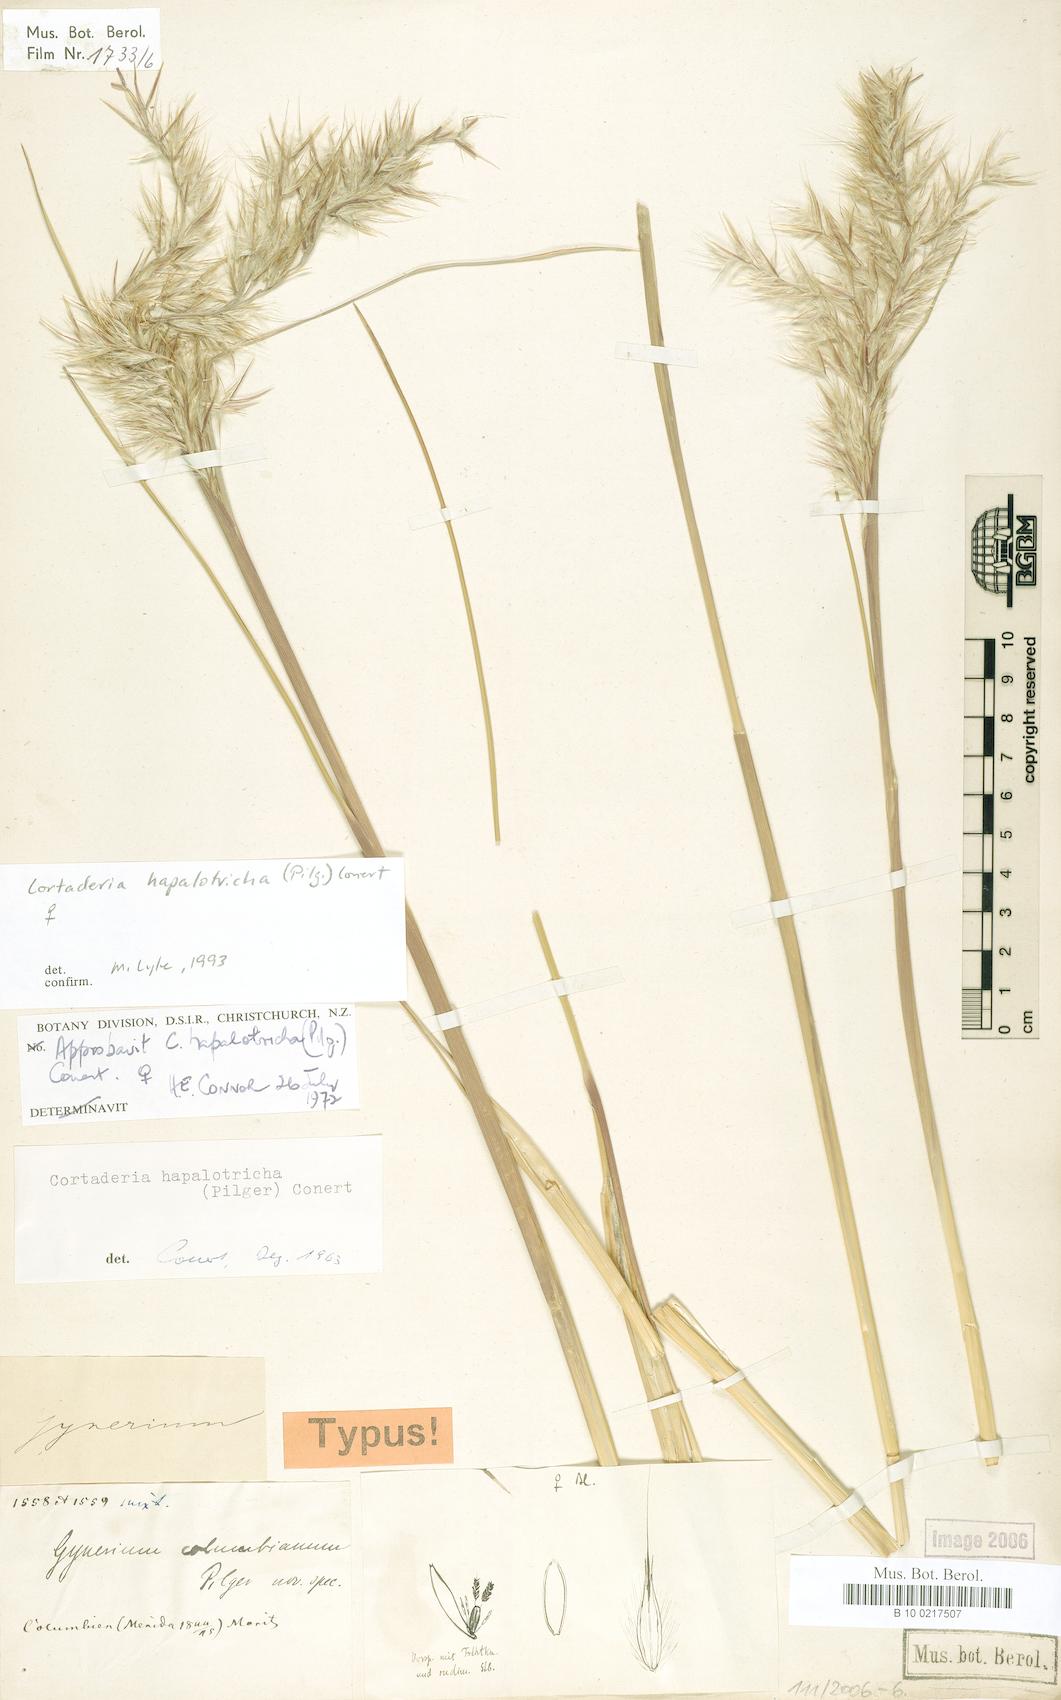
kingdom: Plantae
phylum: Tracheophyta
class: Liliopsida
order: Poales
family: Poaceae
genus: Cortaderia
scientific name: Cortaderia hapalotricha
